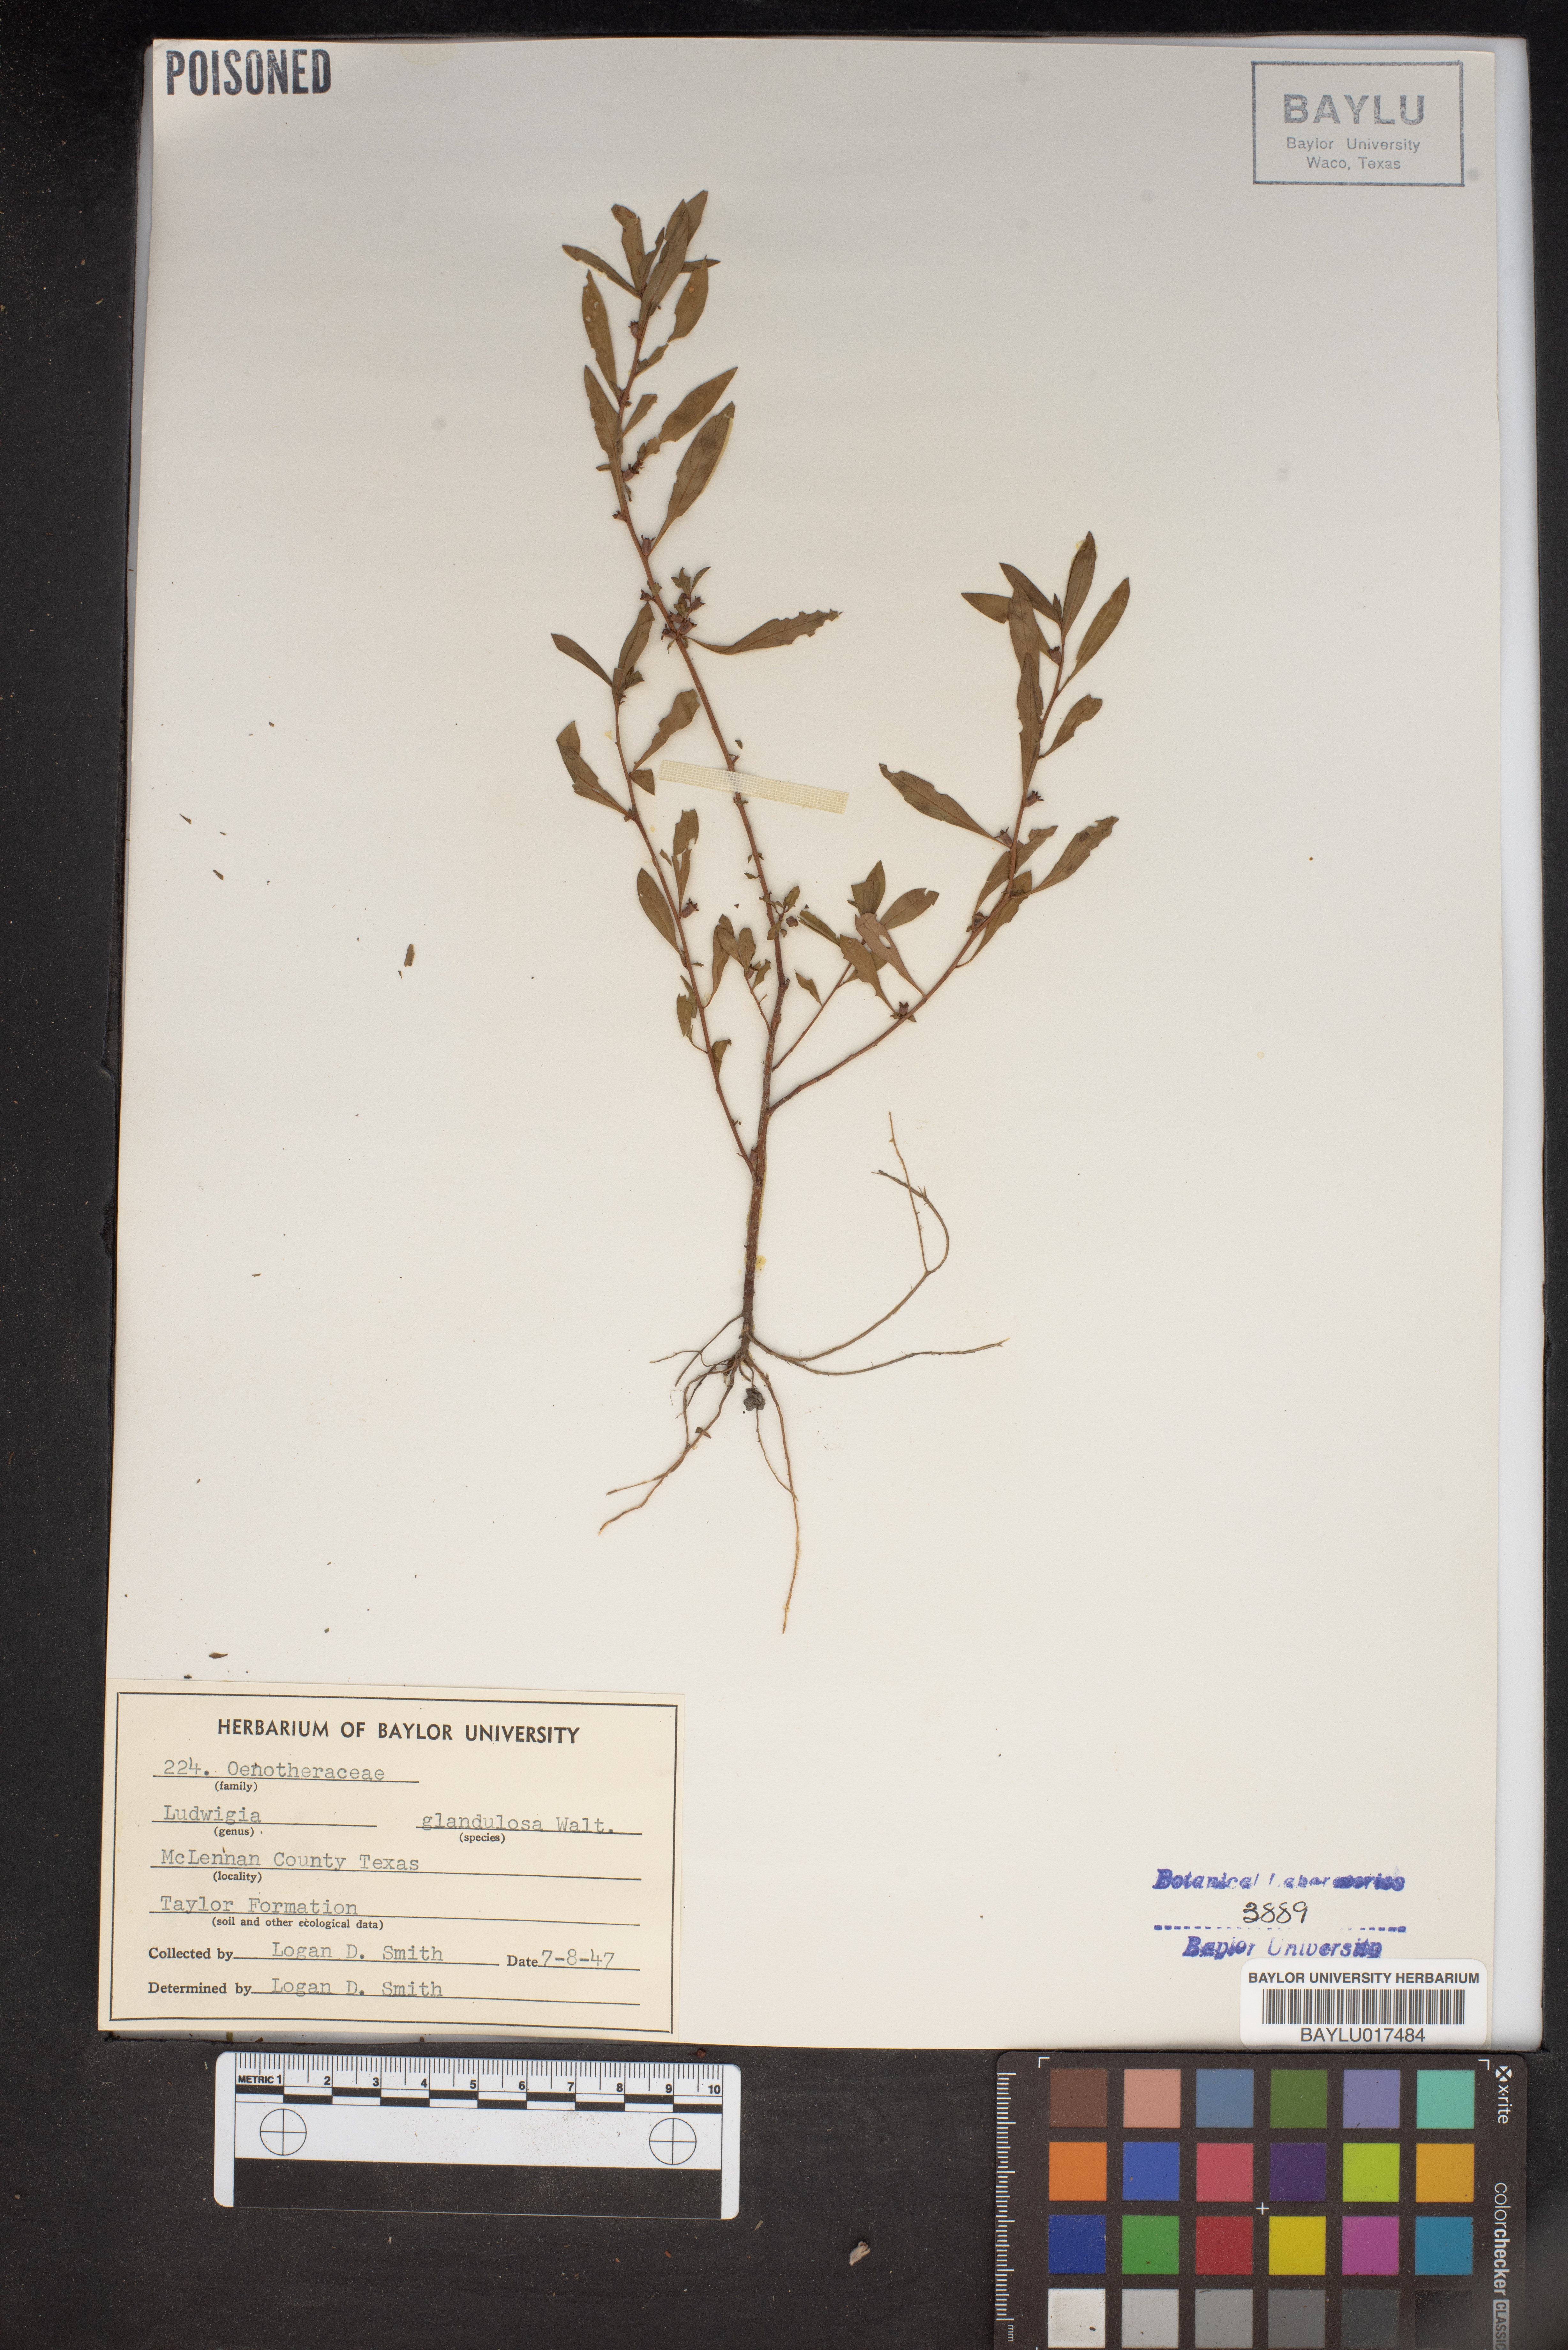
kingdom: Plantae
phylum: Tracheophyta
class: Magnoliopsida
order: Myrtales
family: Onagraceae
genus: Ludwigia
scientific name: Ludwigia glandulosa
